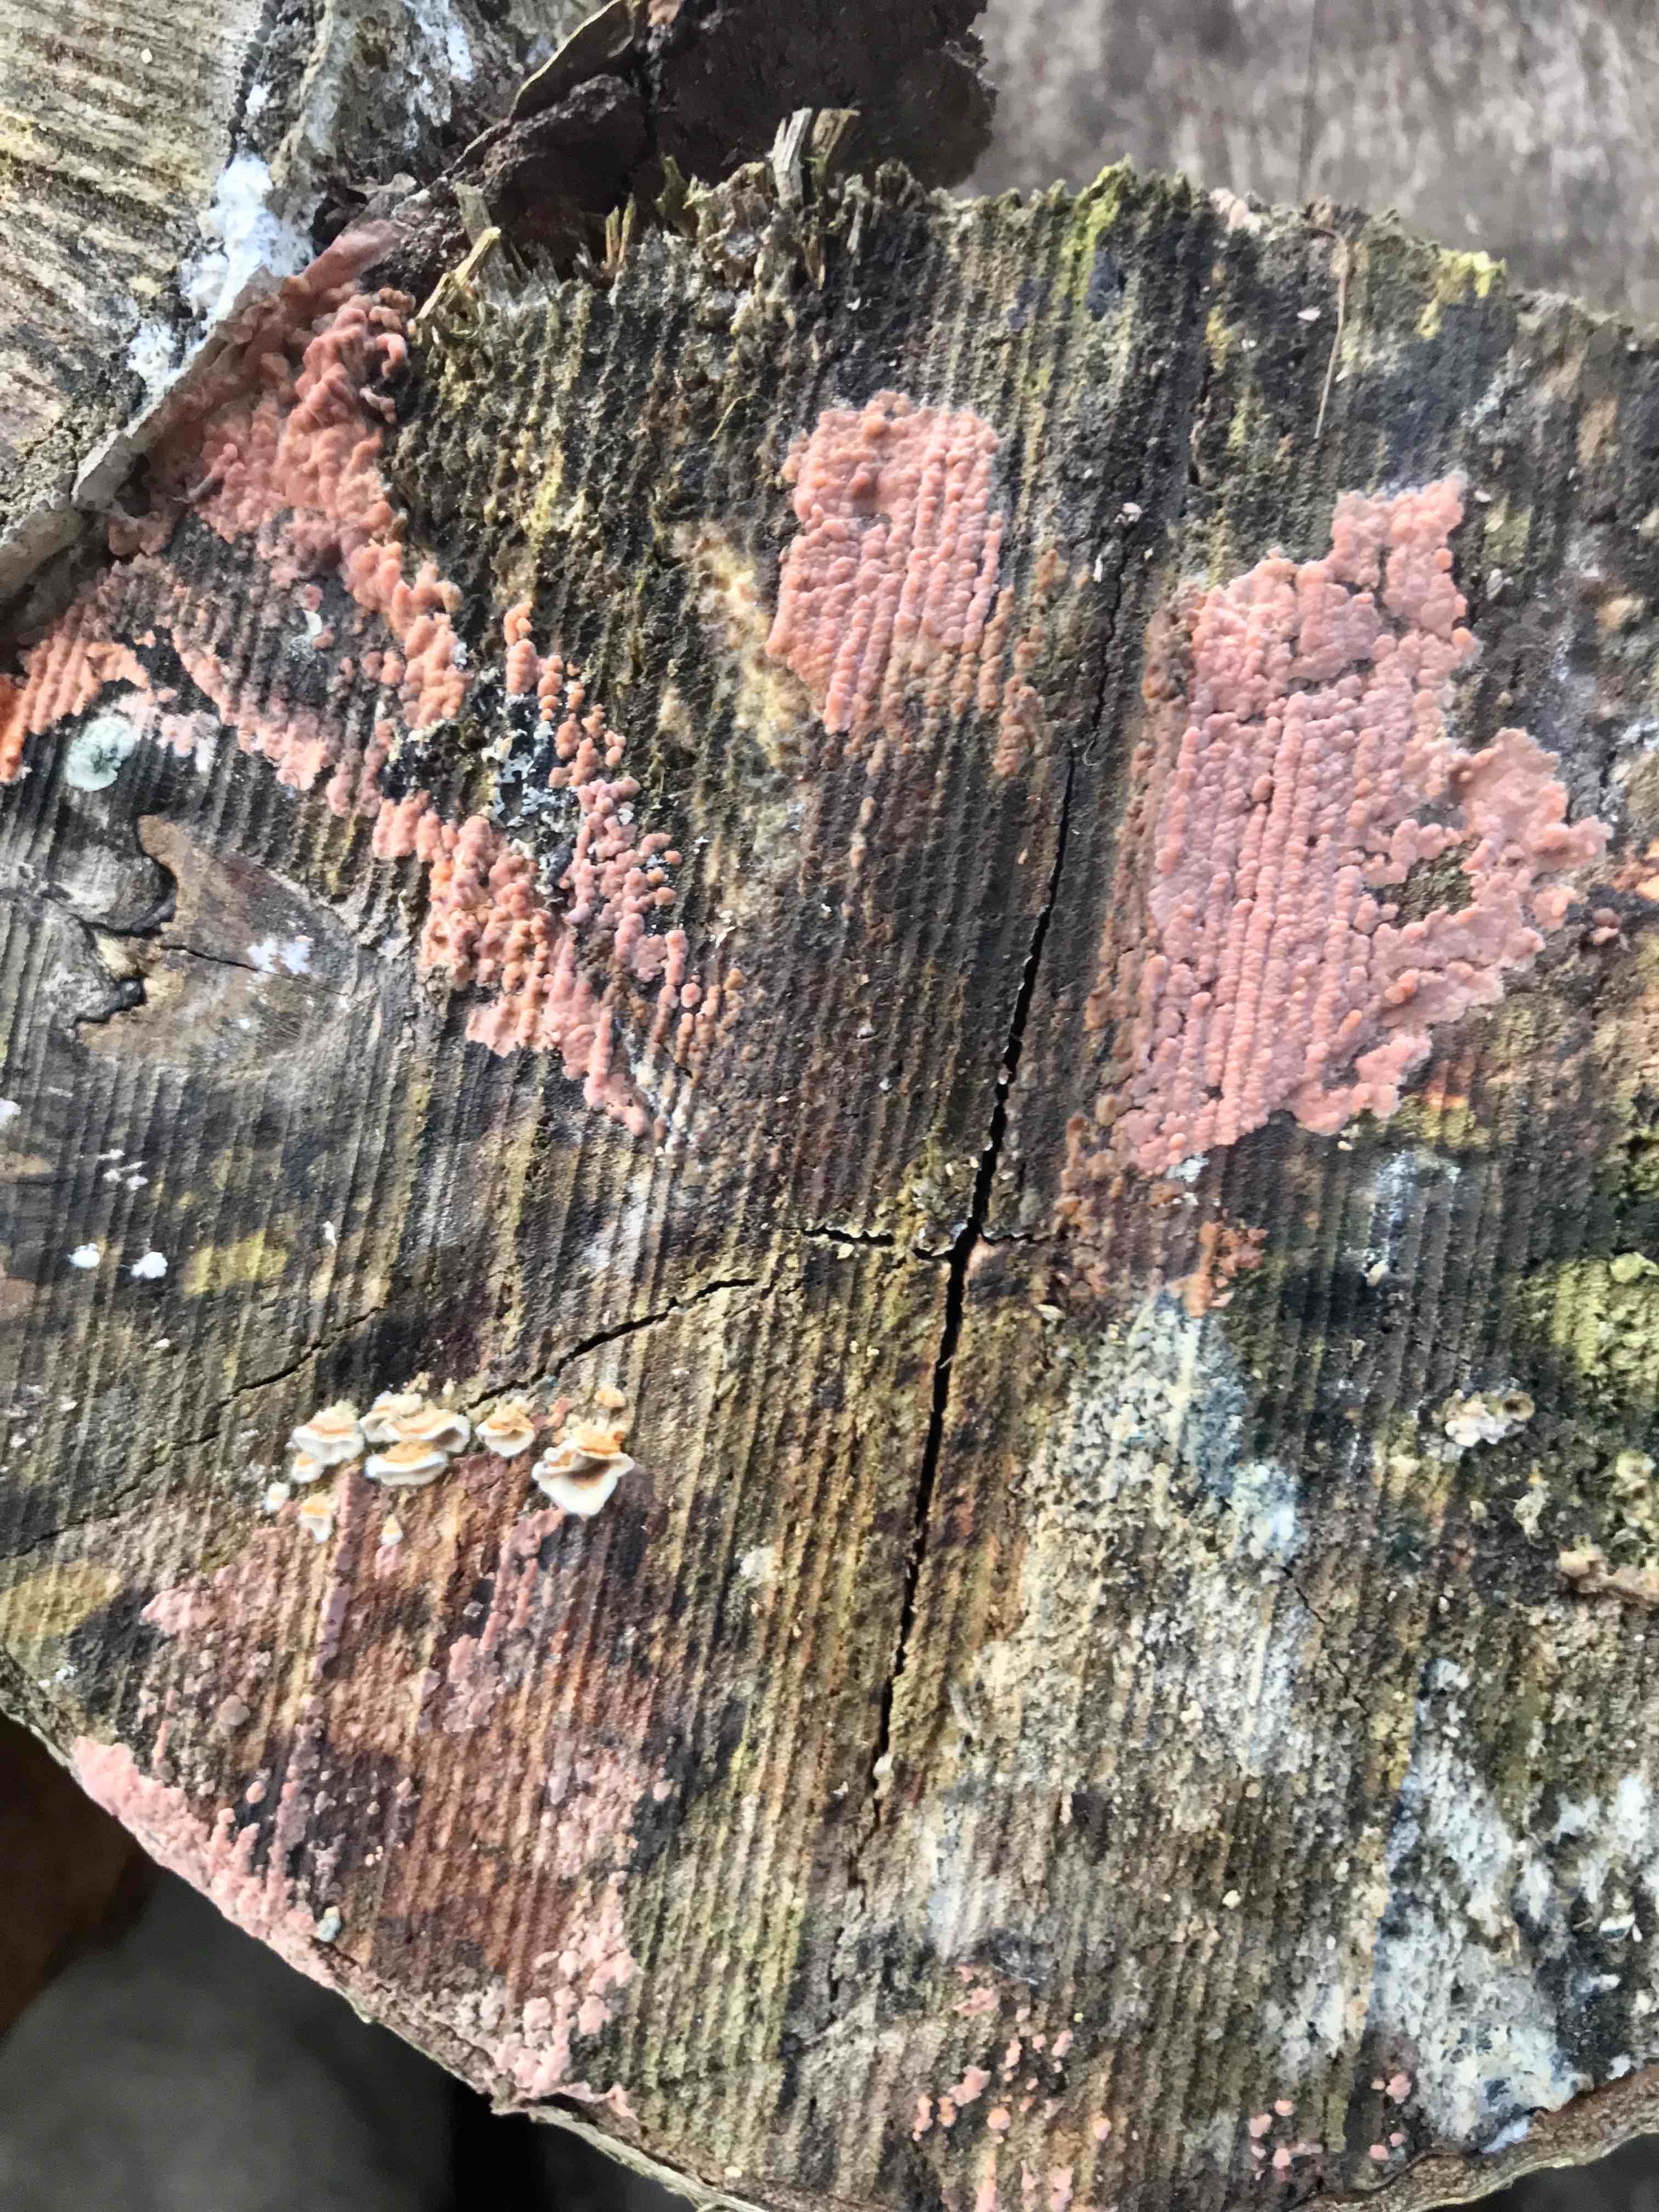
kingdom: Fungi
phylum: Basidiomycota
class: Agaricomycetes
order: Russulales
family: Peniophoraceae
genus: Peniophora
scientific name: Peniophora incarnata
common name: laksefarvet voksskind
